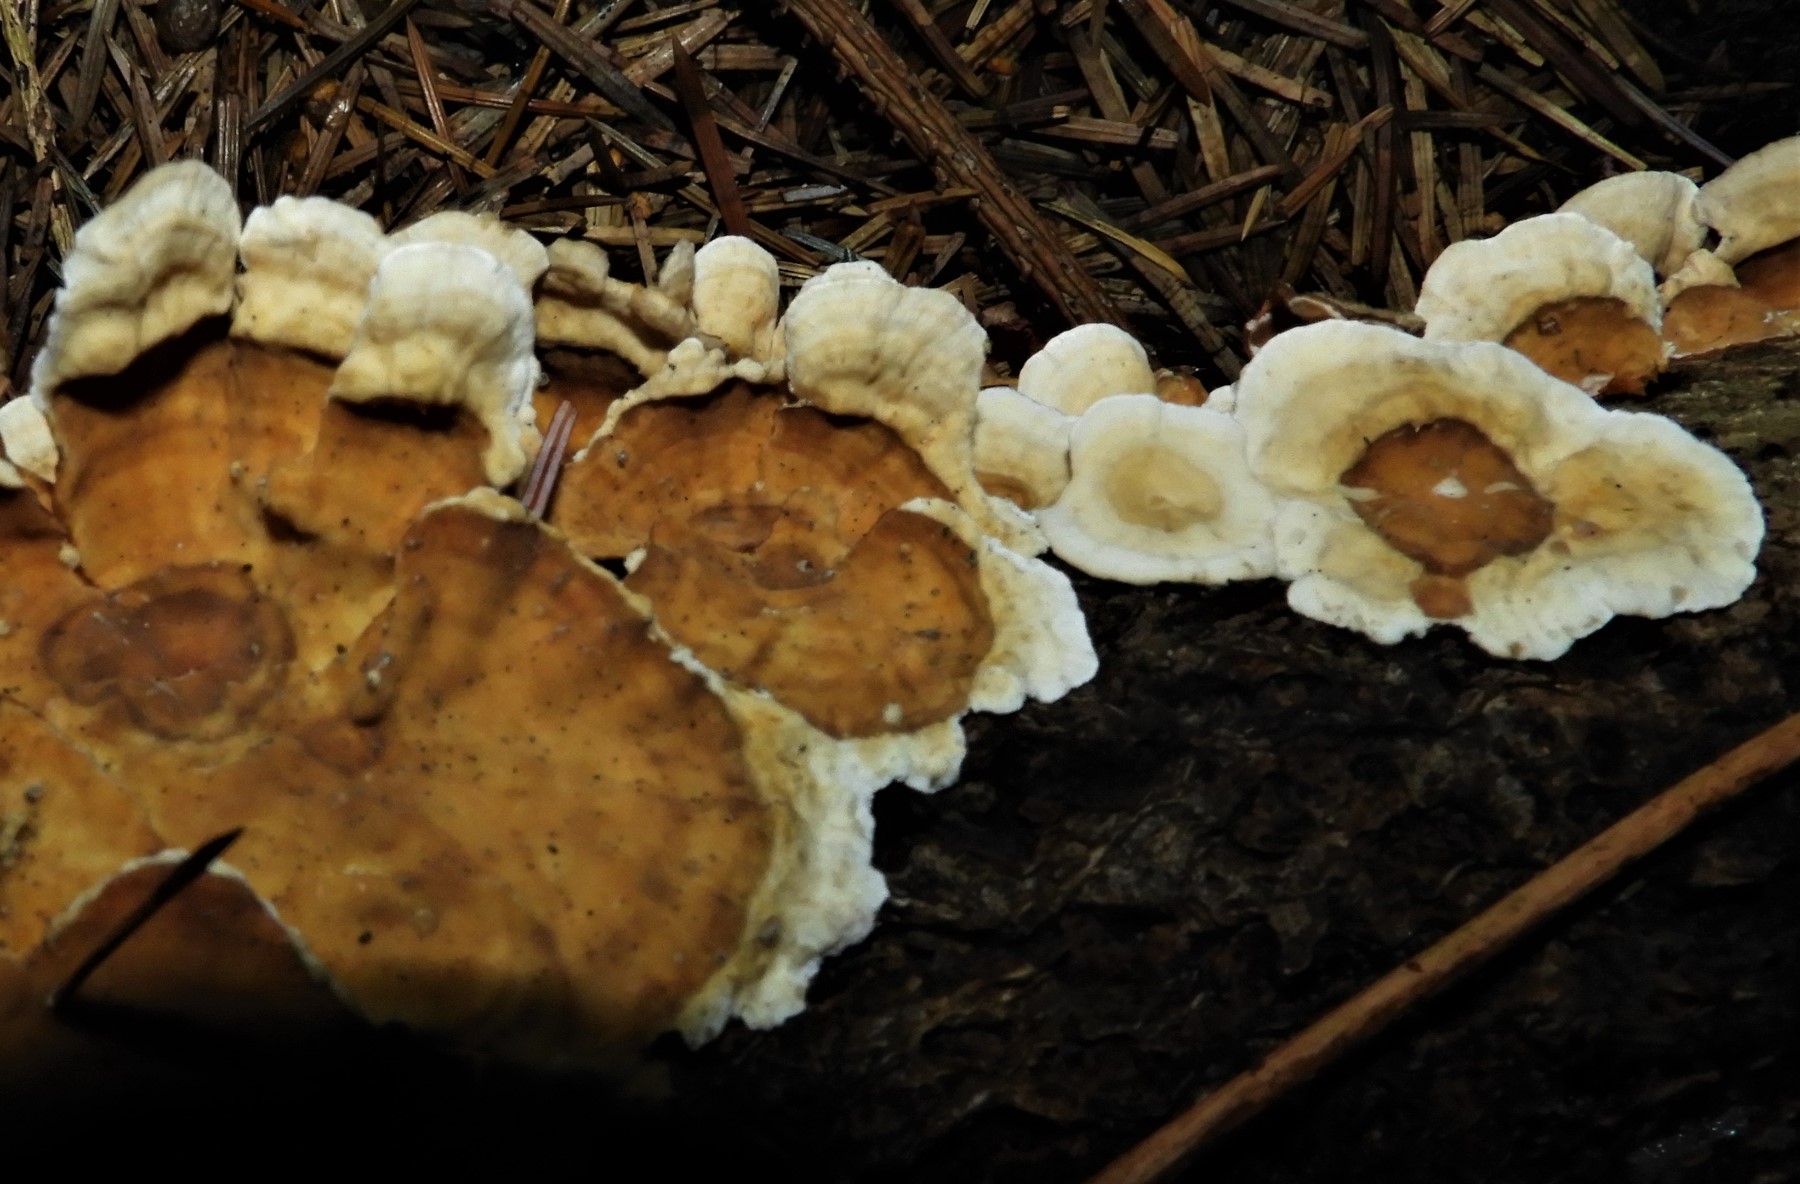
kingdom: Fungi
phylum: Basidiomycota
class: Agaricomycetes
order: Russulales
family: Stereaceae
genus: Stereum
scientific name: Stereum hirsutum
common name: håret lædersvamp
